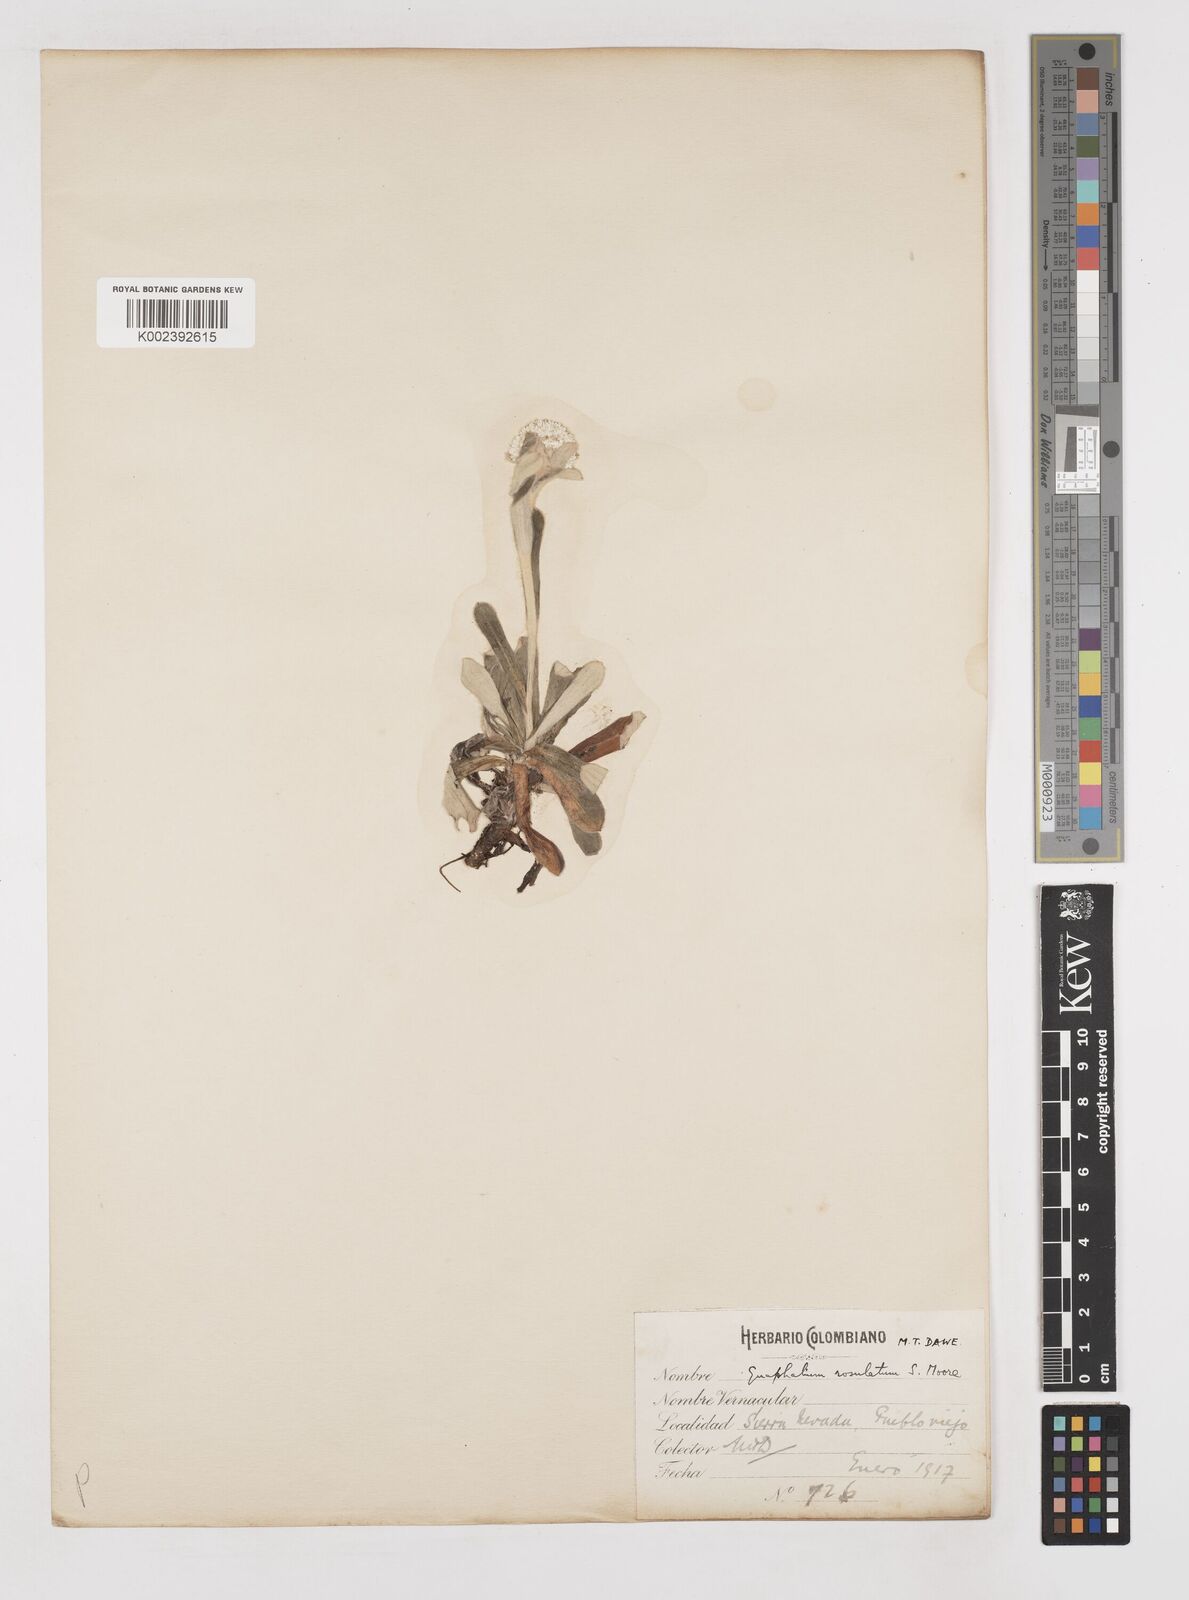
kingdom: Plantae
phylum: Tracheophyta
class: Magnoliopsida
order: Asterales
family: Asteraceae
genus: Gnaphalium
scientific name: Gnaphalium rosulatum
